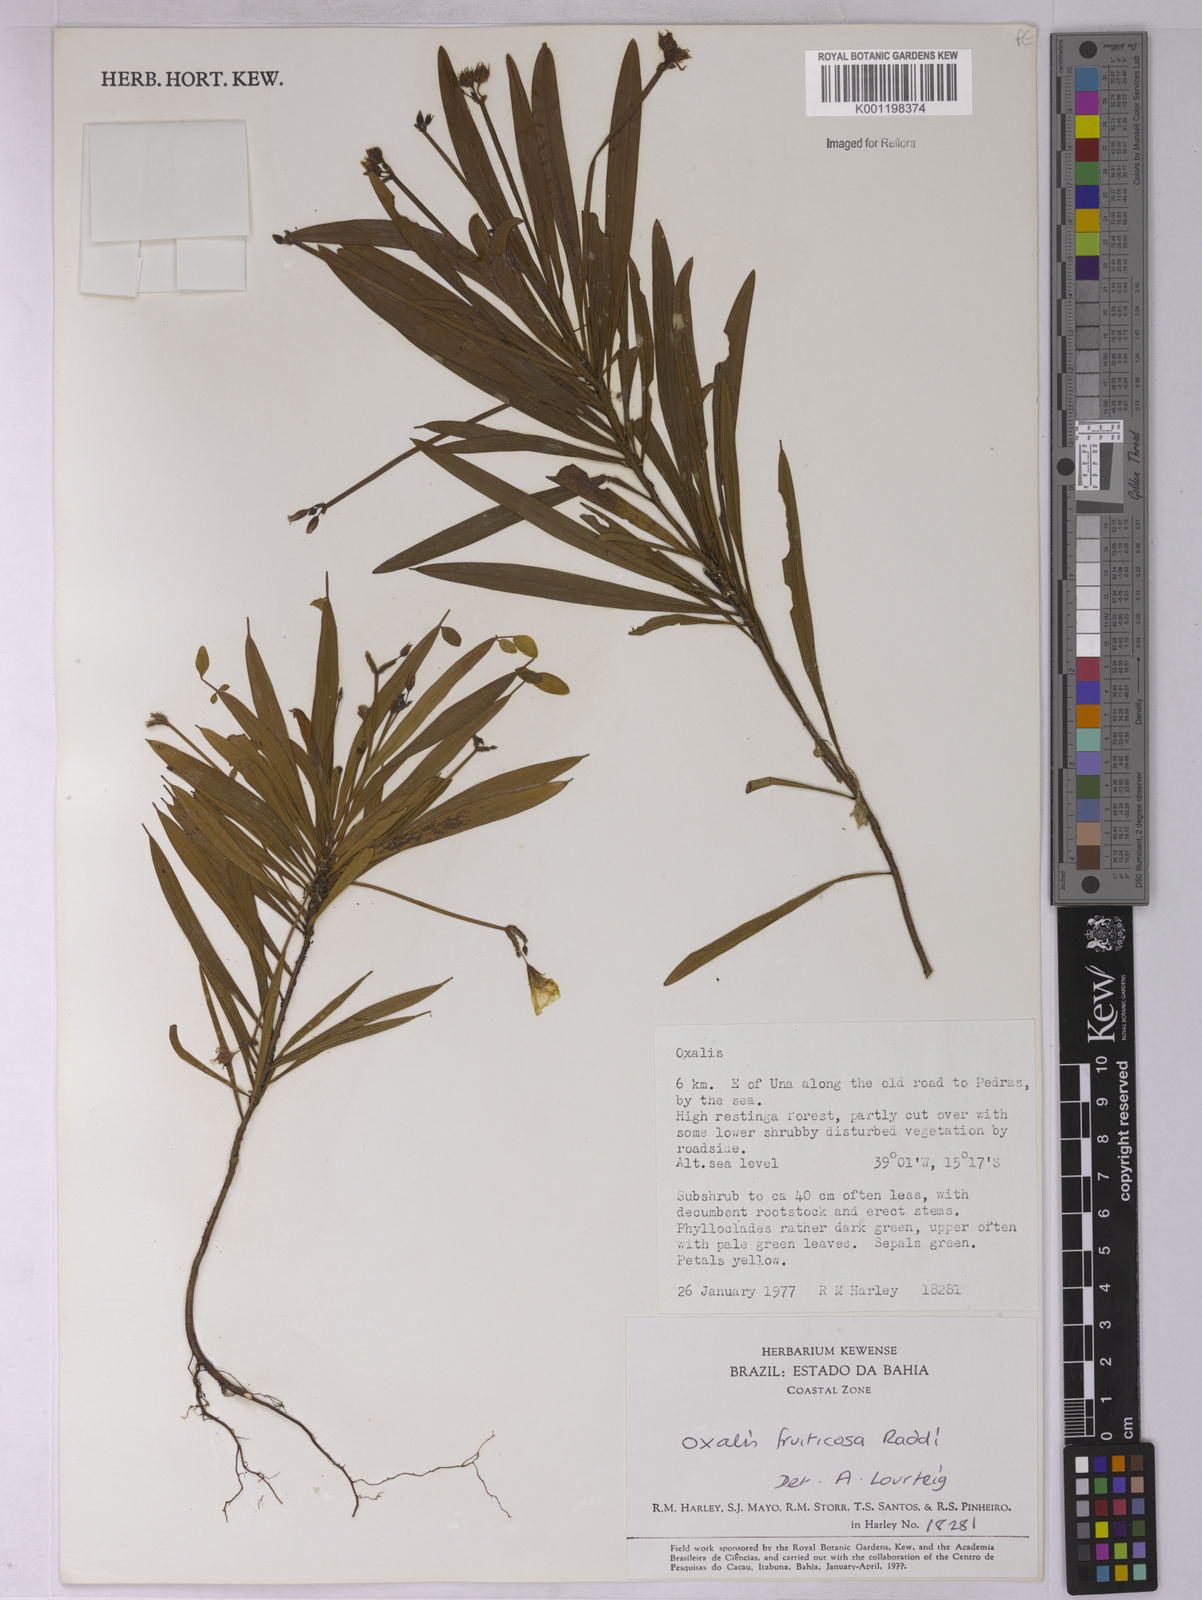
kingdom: Plantae
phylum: Tracheophyta
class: Magnoliopsida
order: Oxalidales
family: Oxalidaceae
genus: Oxalis
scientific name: Oxalis fruticosa
